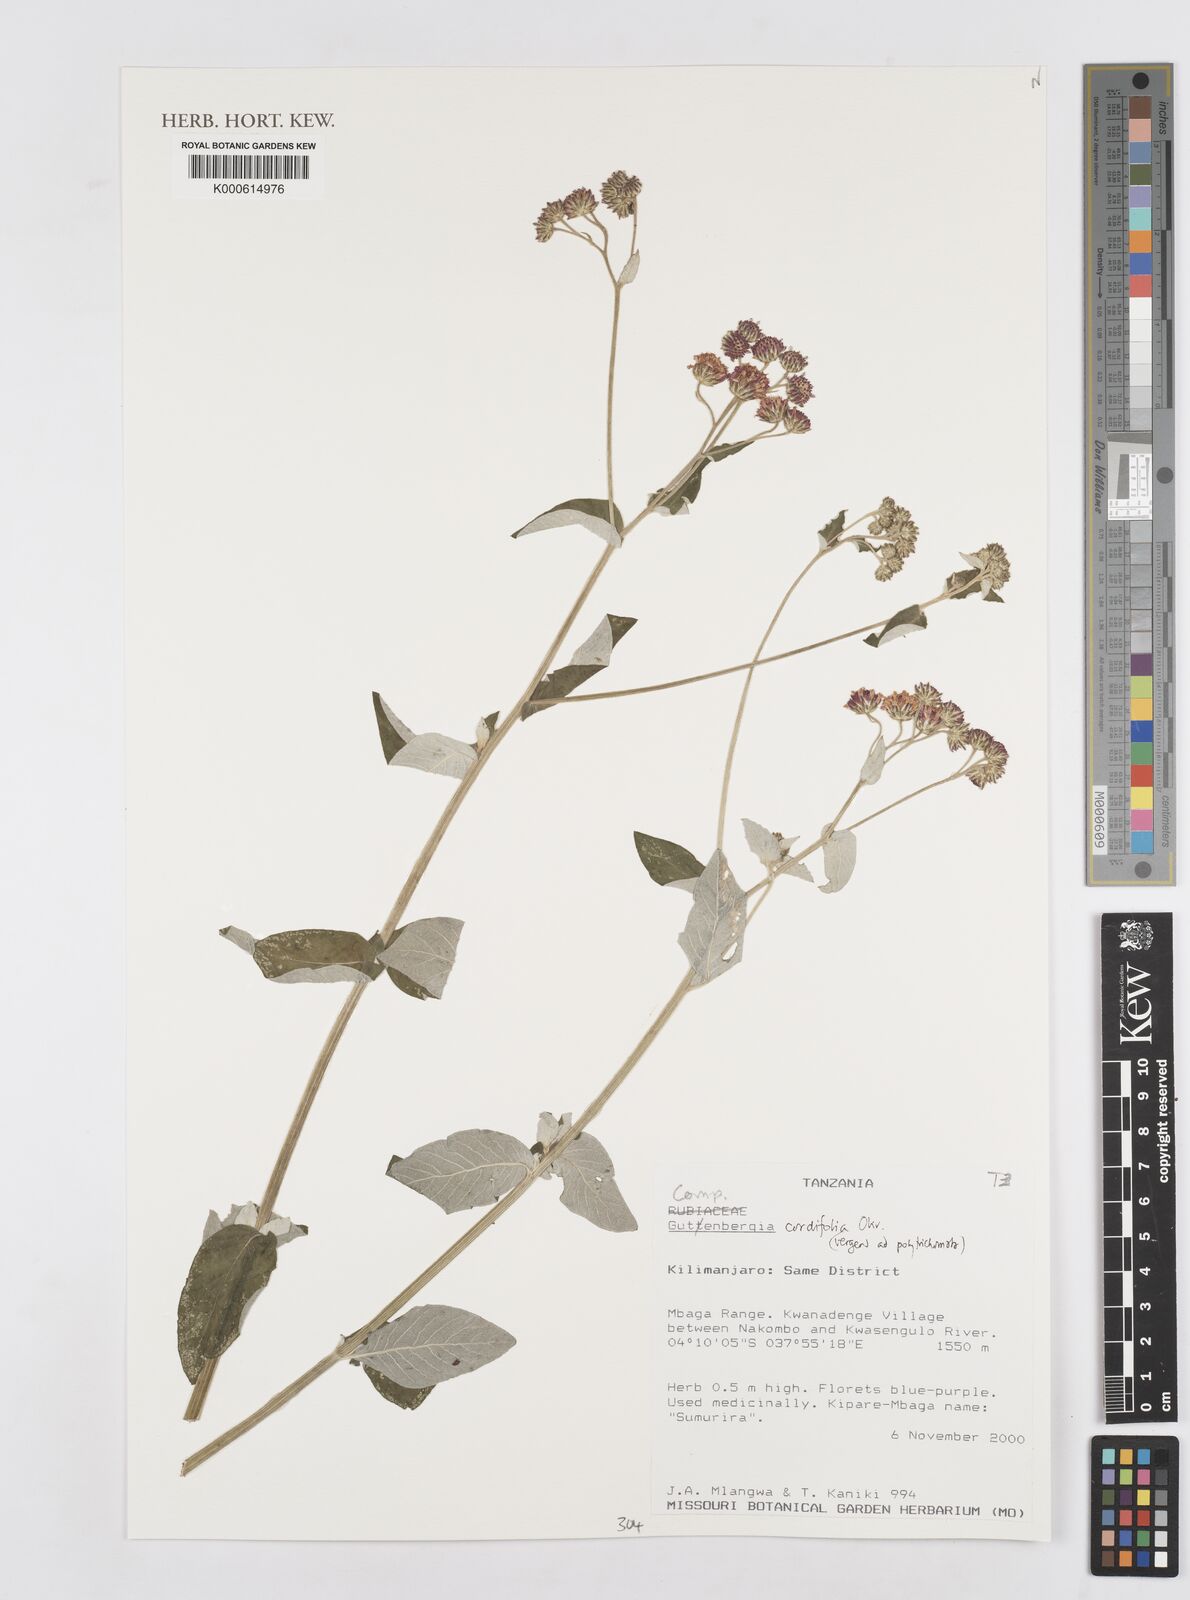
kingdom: Plantae
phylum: Tracheophyta
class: Magnoliopsida
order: Asterales
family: Asteraceae
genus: Gutenbergia
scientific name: Gutenbergia cordifolia
